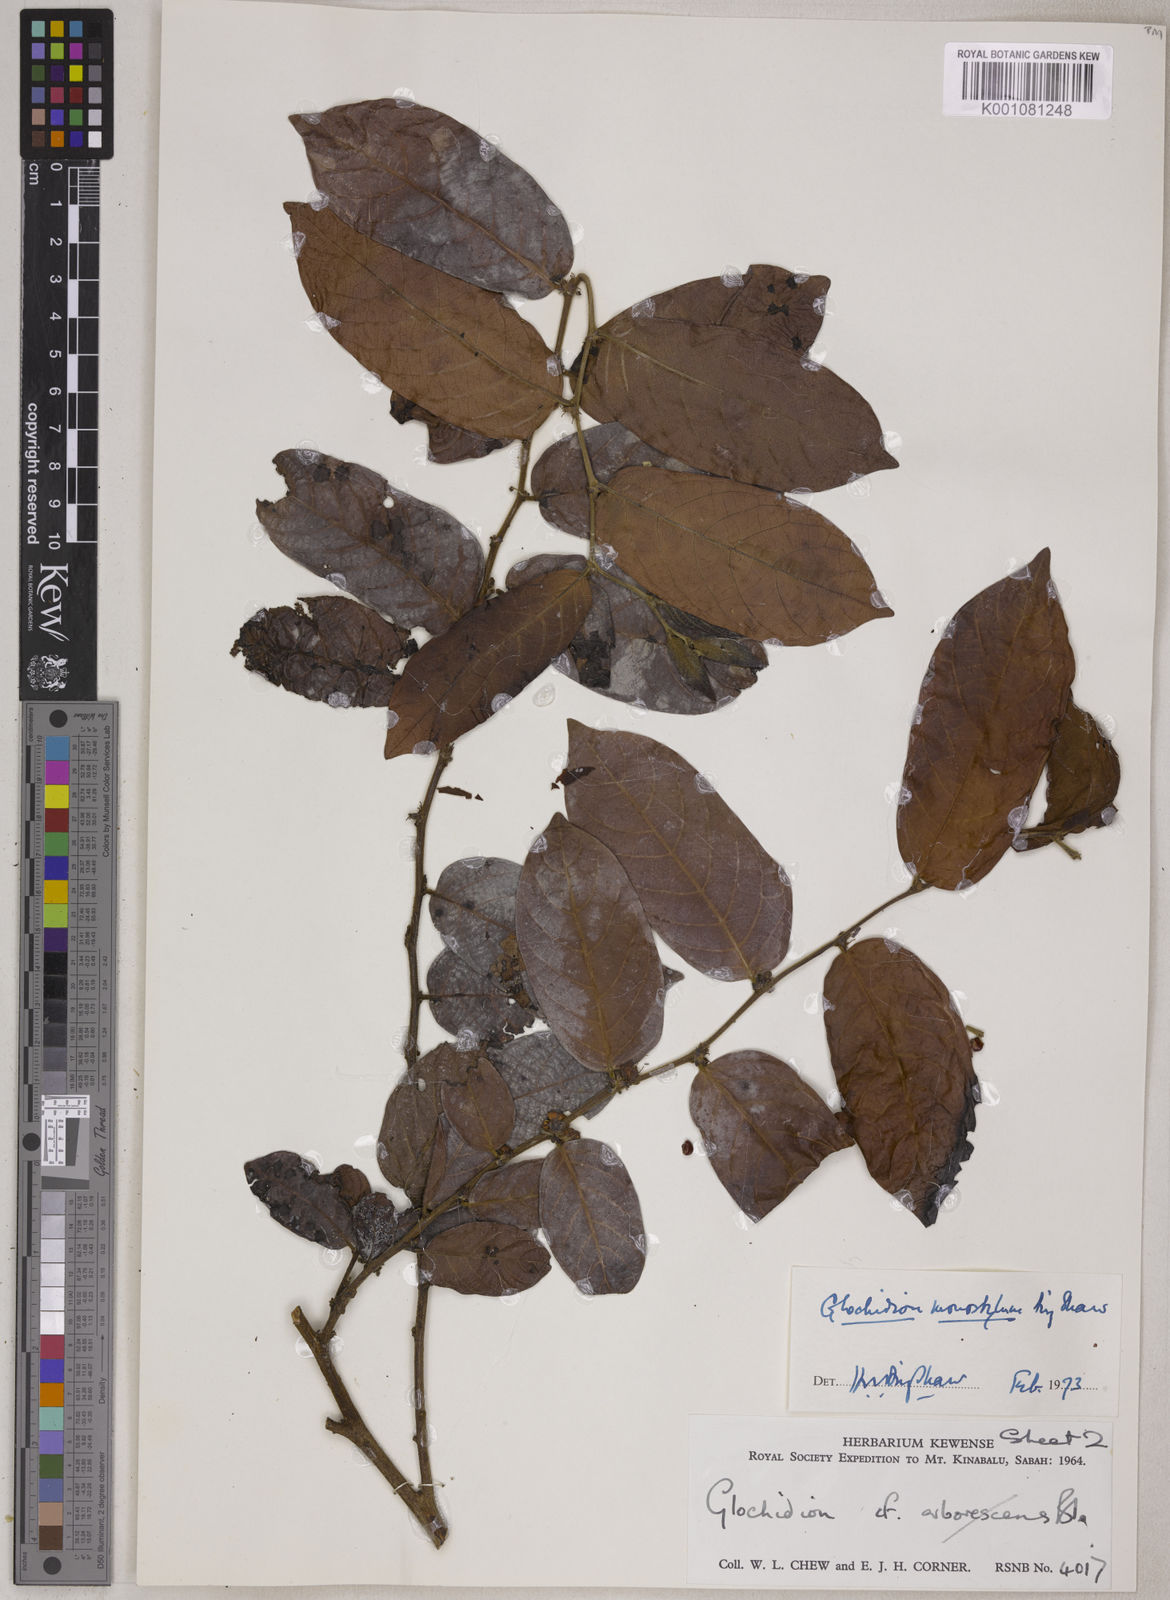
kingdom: Plantae
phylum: Tracheophyta
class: Magnoliopsida
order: Malpighiales
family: Phyllanthaceae
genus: Glochidion
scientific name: Glochidion monostylum
